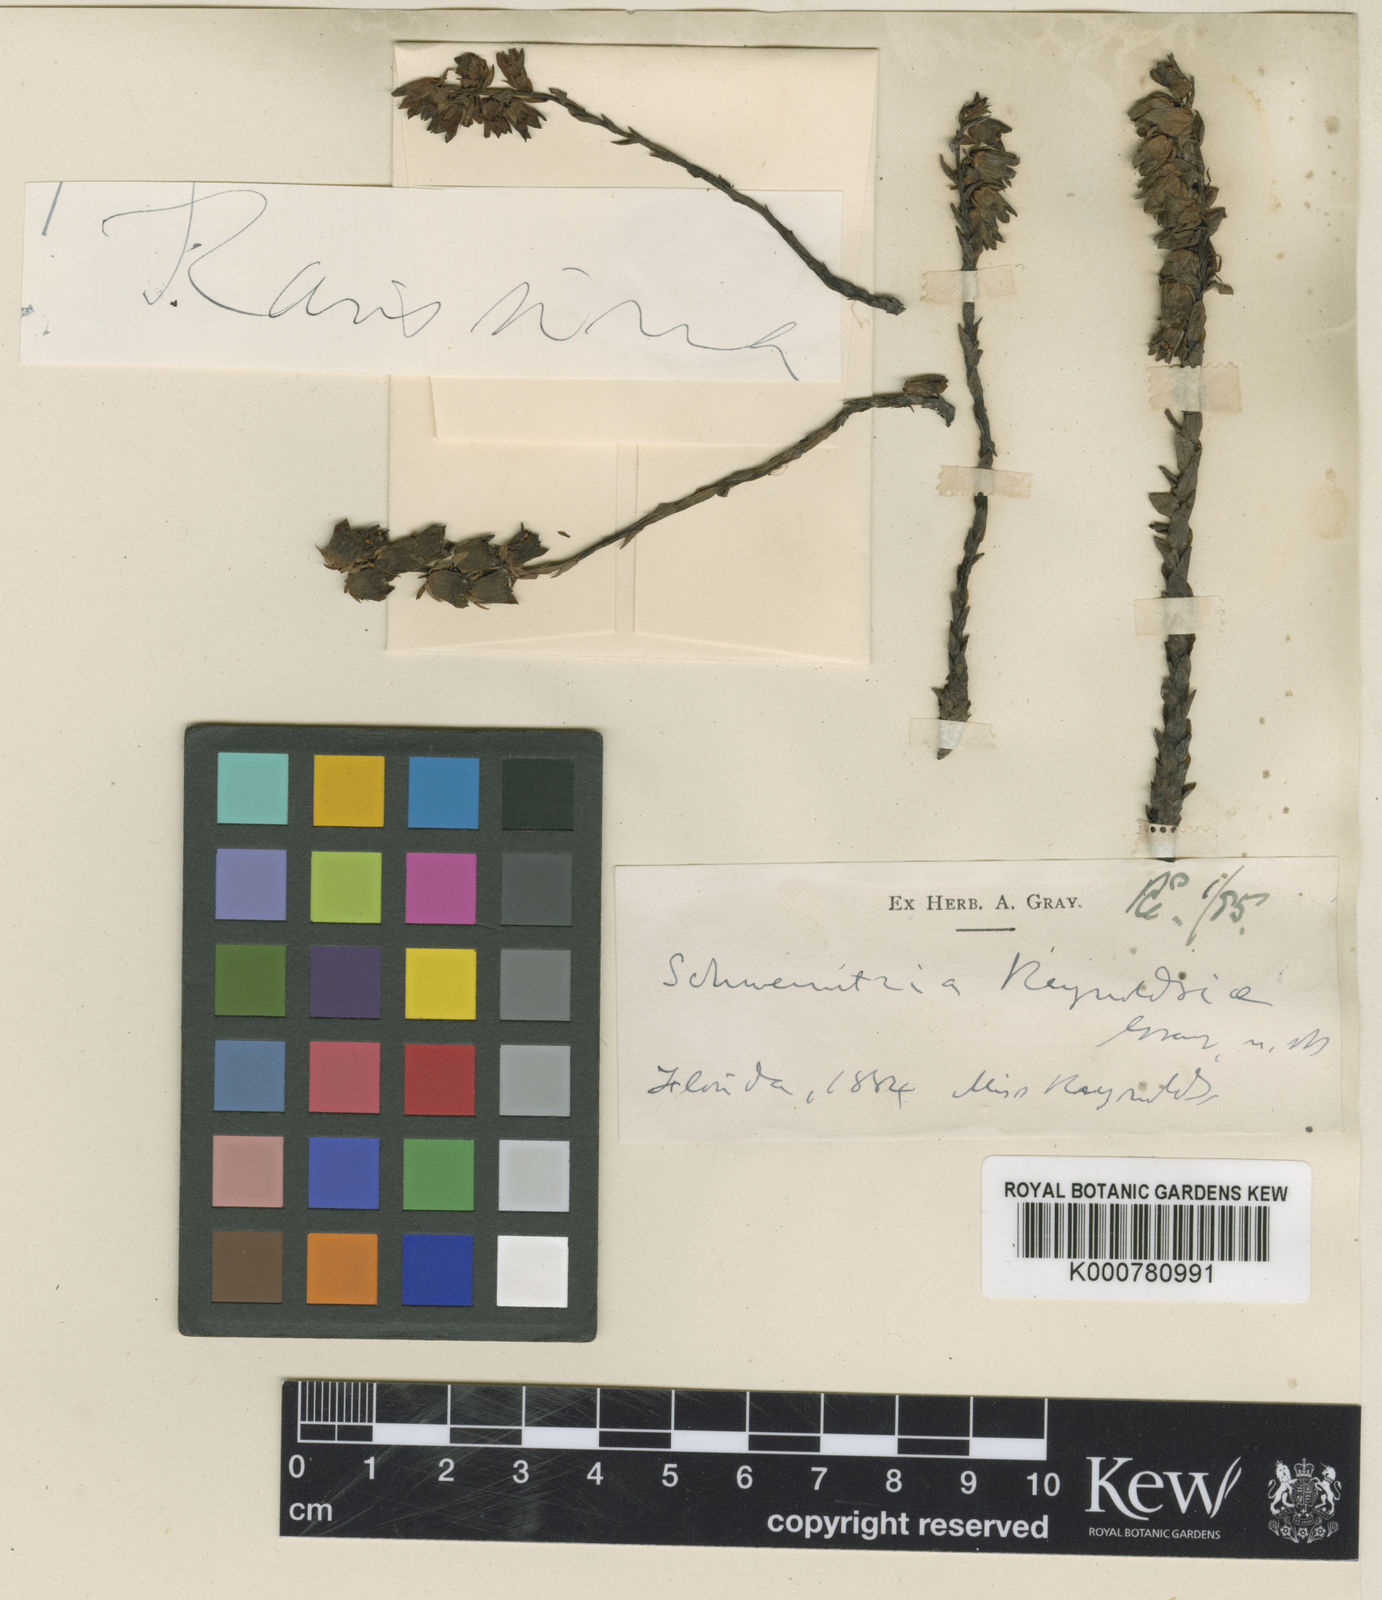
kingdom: Plantae
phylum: Tracheophyta
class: Magnoliopsida
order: Ericales
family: Ericaceae
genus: Monotropsis
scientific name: Monotropsis odorata
